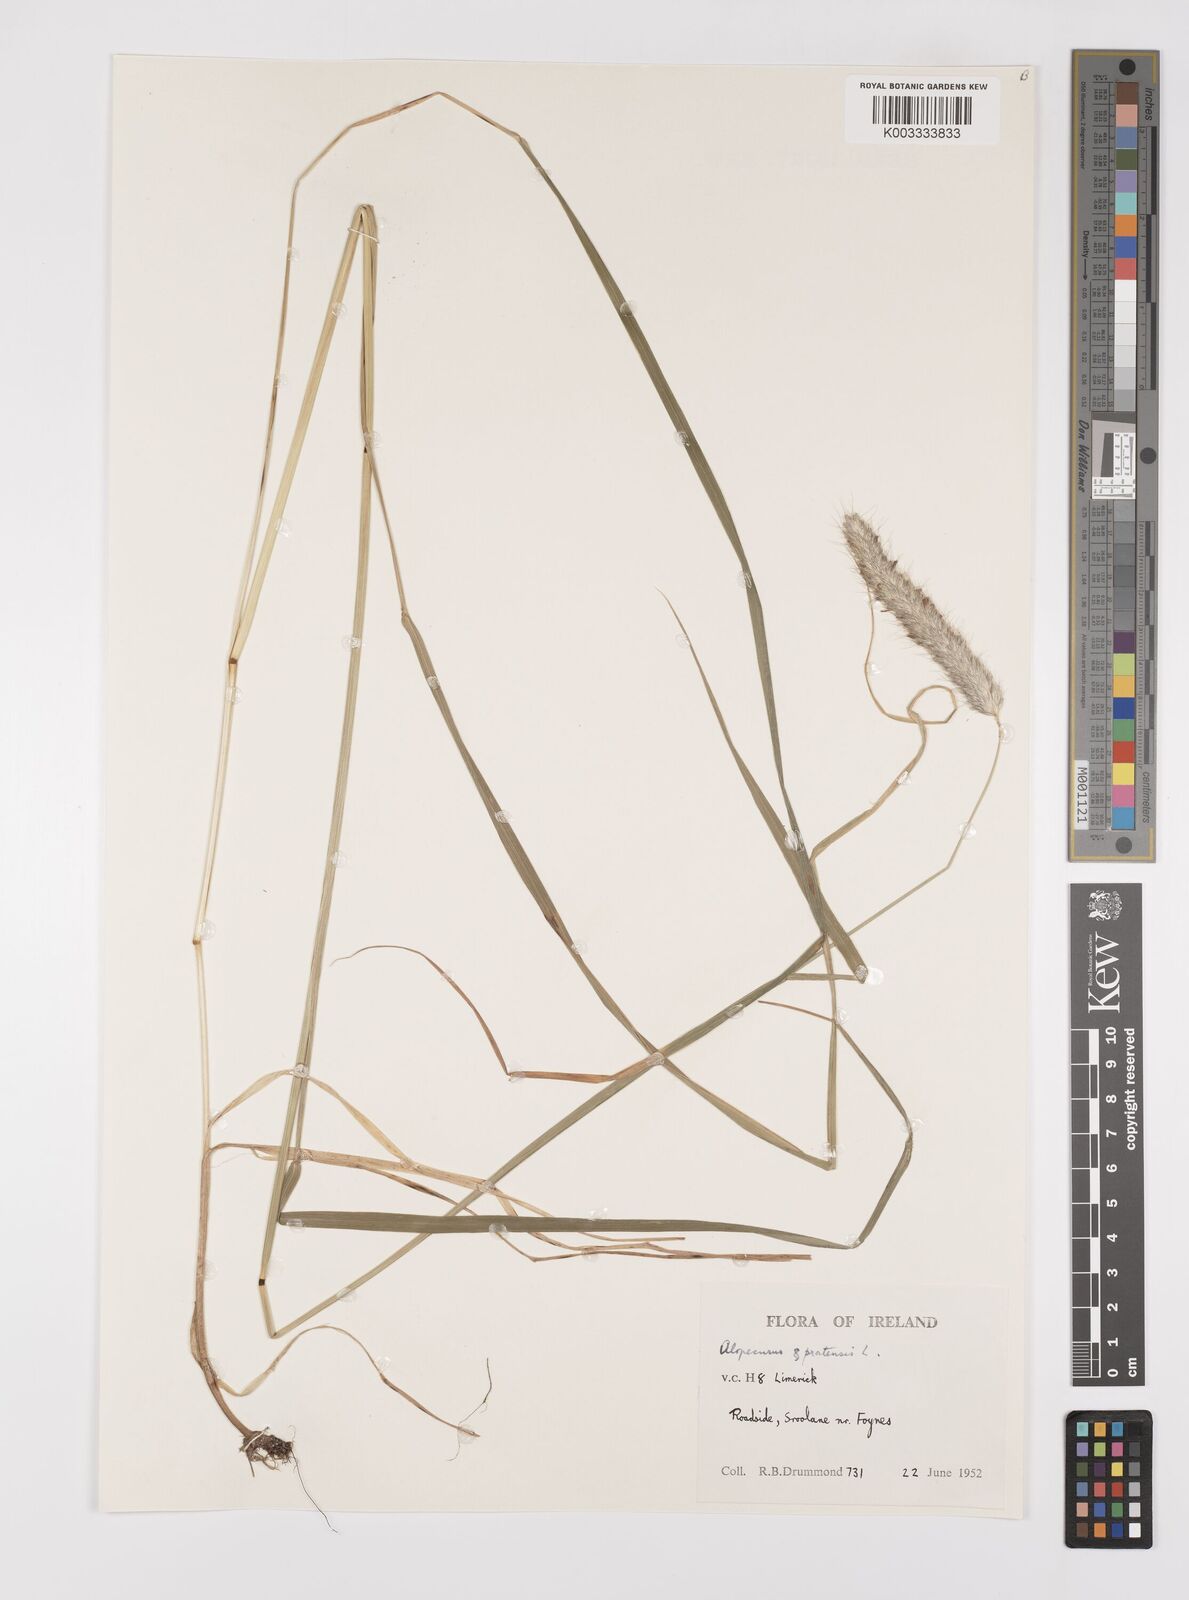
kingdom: Plantae
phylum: Tracheophyta
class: Liliopsida
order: Poales
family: Poaceae
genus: Alopecurus
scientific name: Alopecurus pratensis
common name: Meadow foxtail
